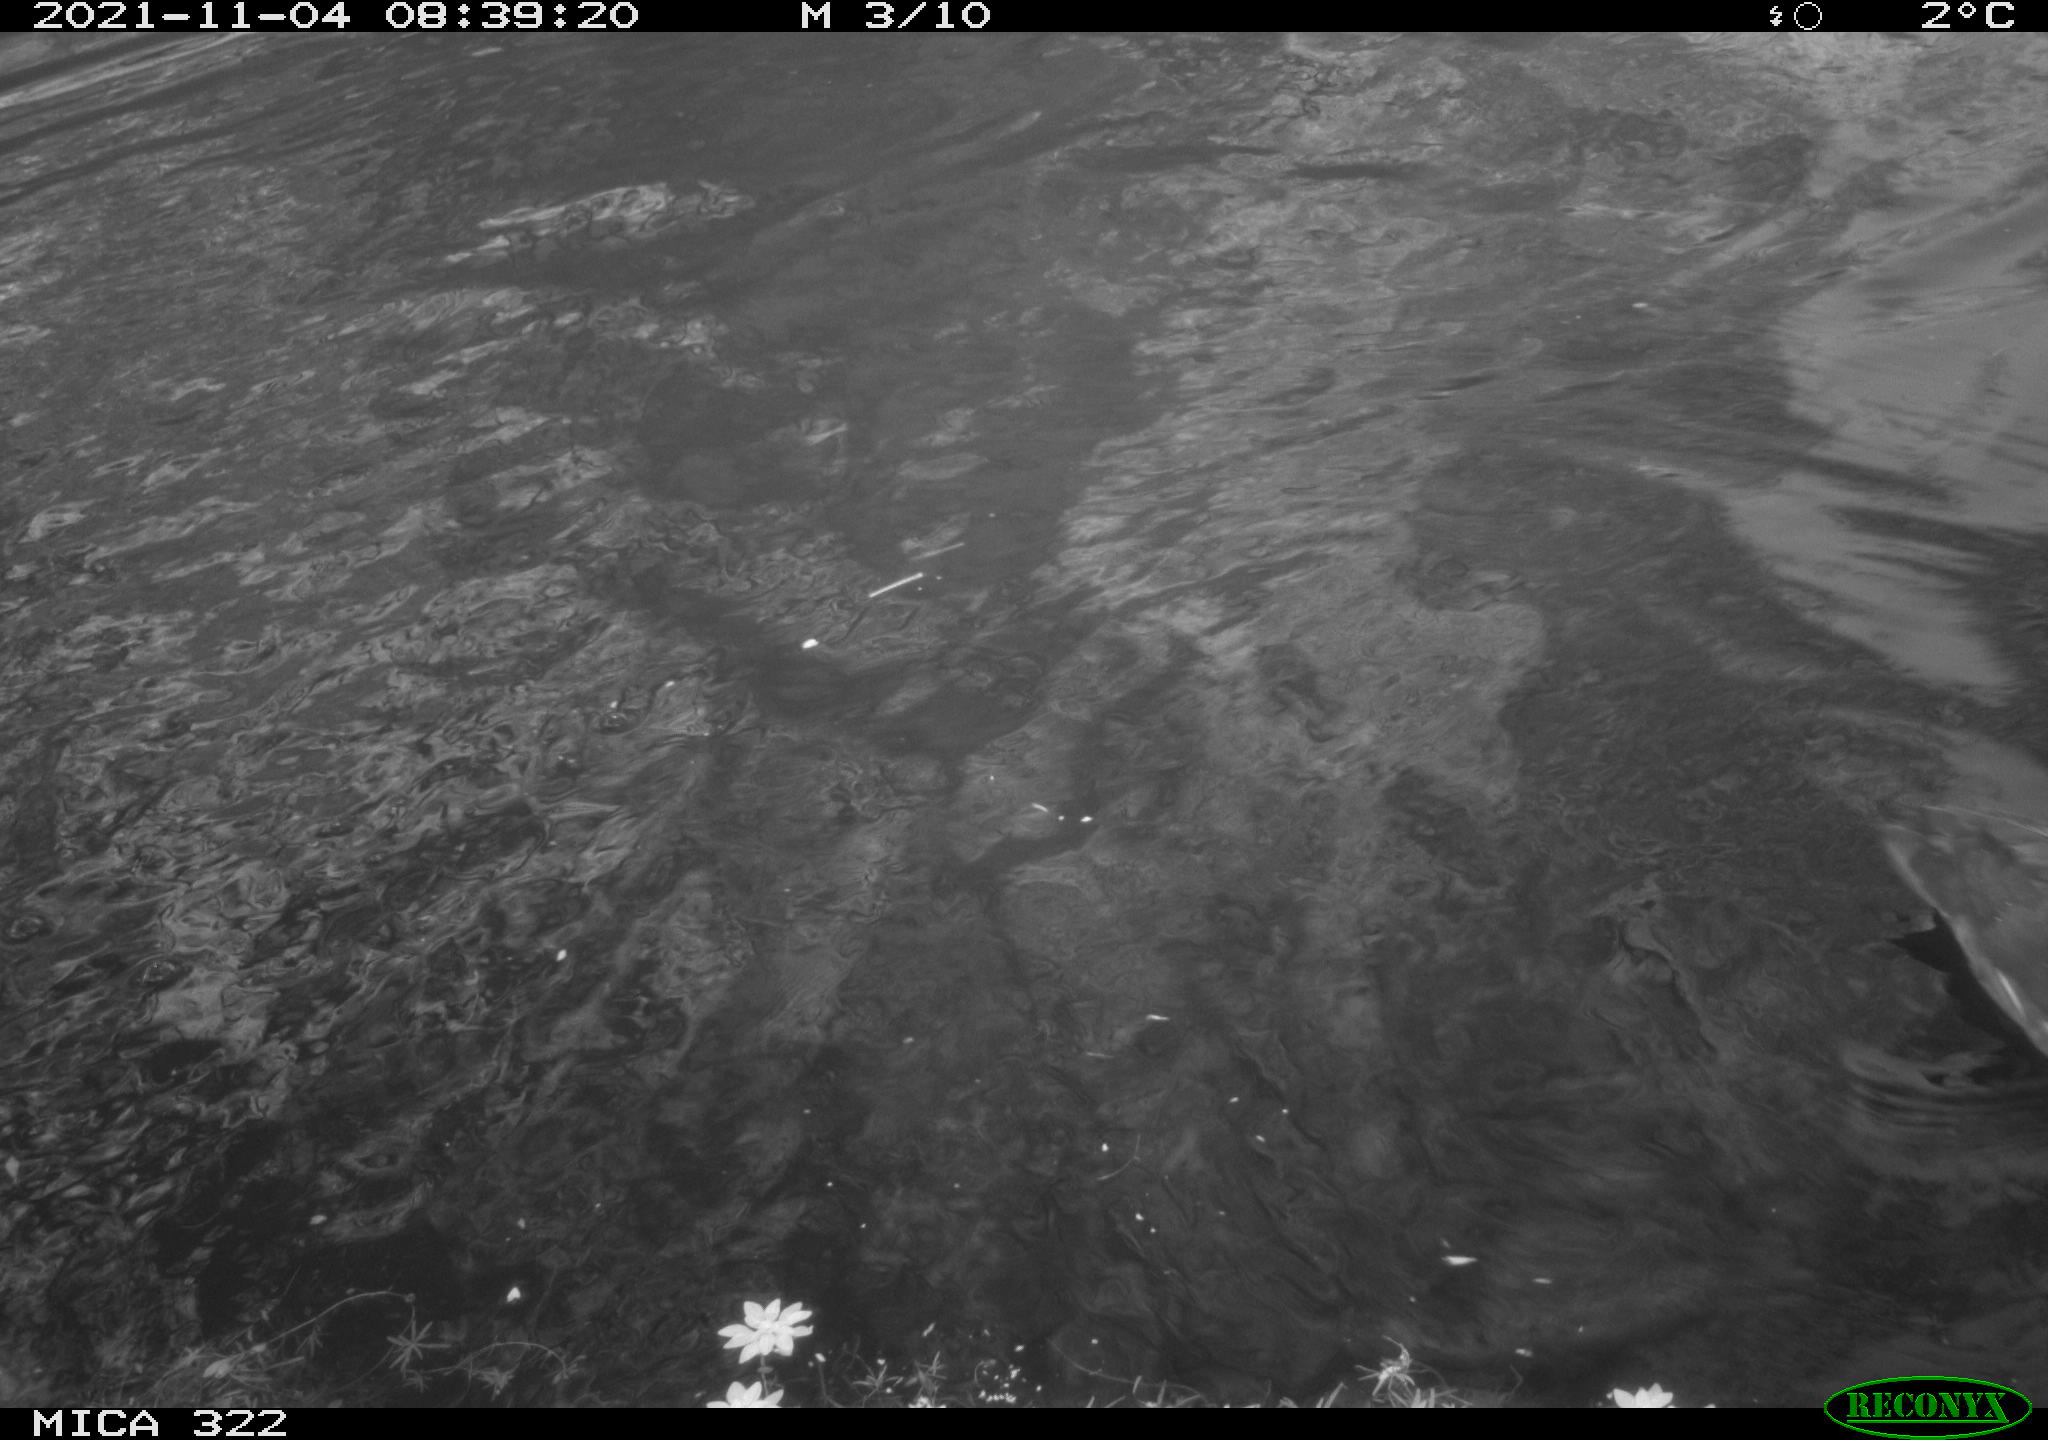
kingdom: Animalia
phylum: Chordata
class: Aves
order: Gruiformes
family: Rallidae
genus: Gallinula
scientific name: Gallinula chloropus
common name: Common moorhen
